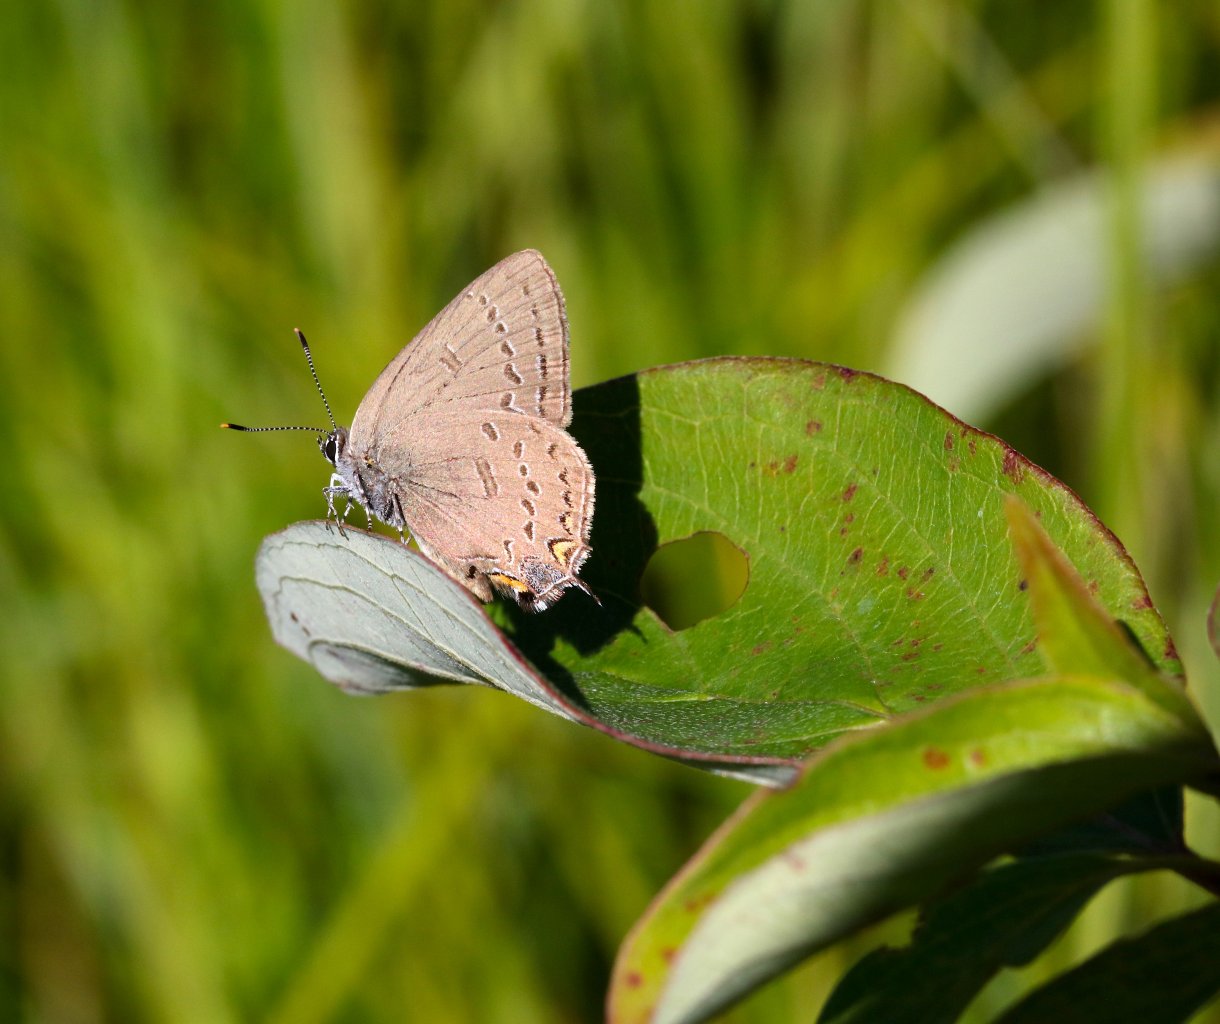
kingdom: Animalia
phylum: Arthropoda
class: Insecta
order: Lepidoptera
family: Lycaenidae
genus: Satyrium
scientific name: Satyrium edwardsii
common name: Edwards' Hairstreak
